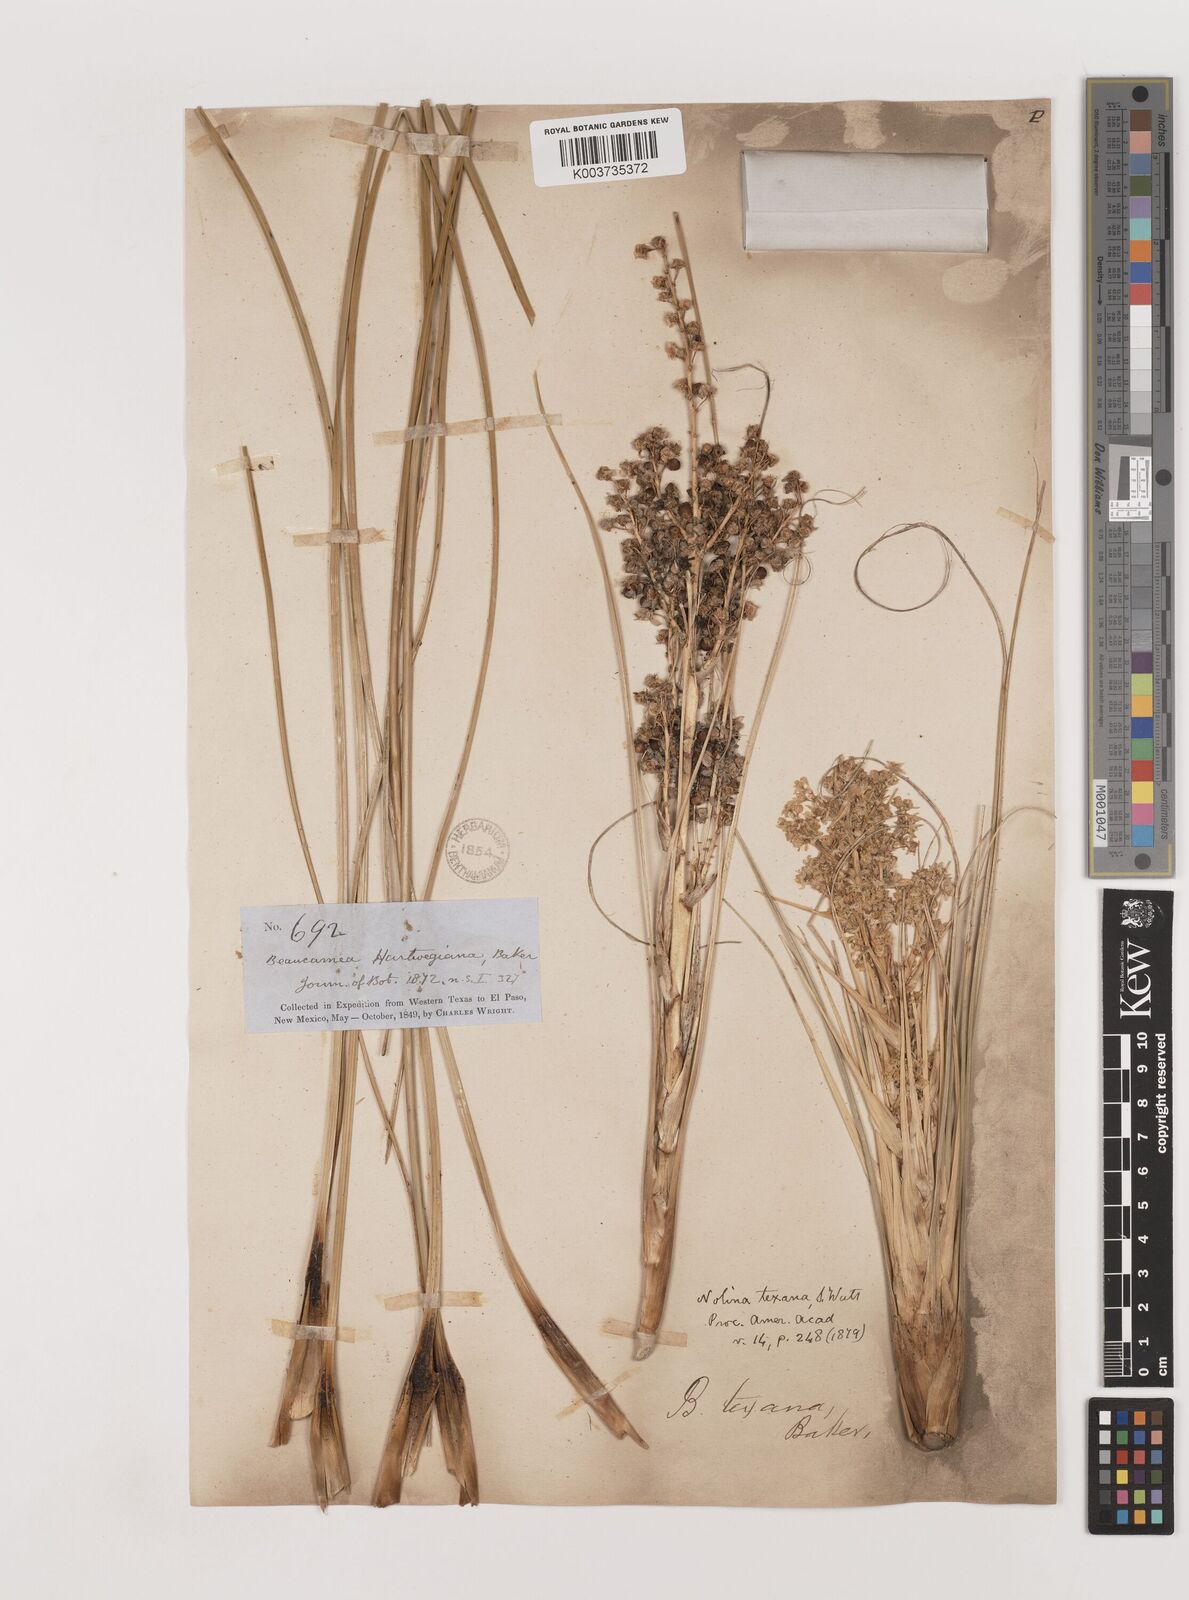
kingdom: Plantae
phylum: Tracheophyta
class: Liliopsida
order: Asparagales
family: Asparagaceae
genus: Nolina
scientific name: Nolina texana
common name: Texas sacahuiste
